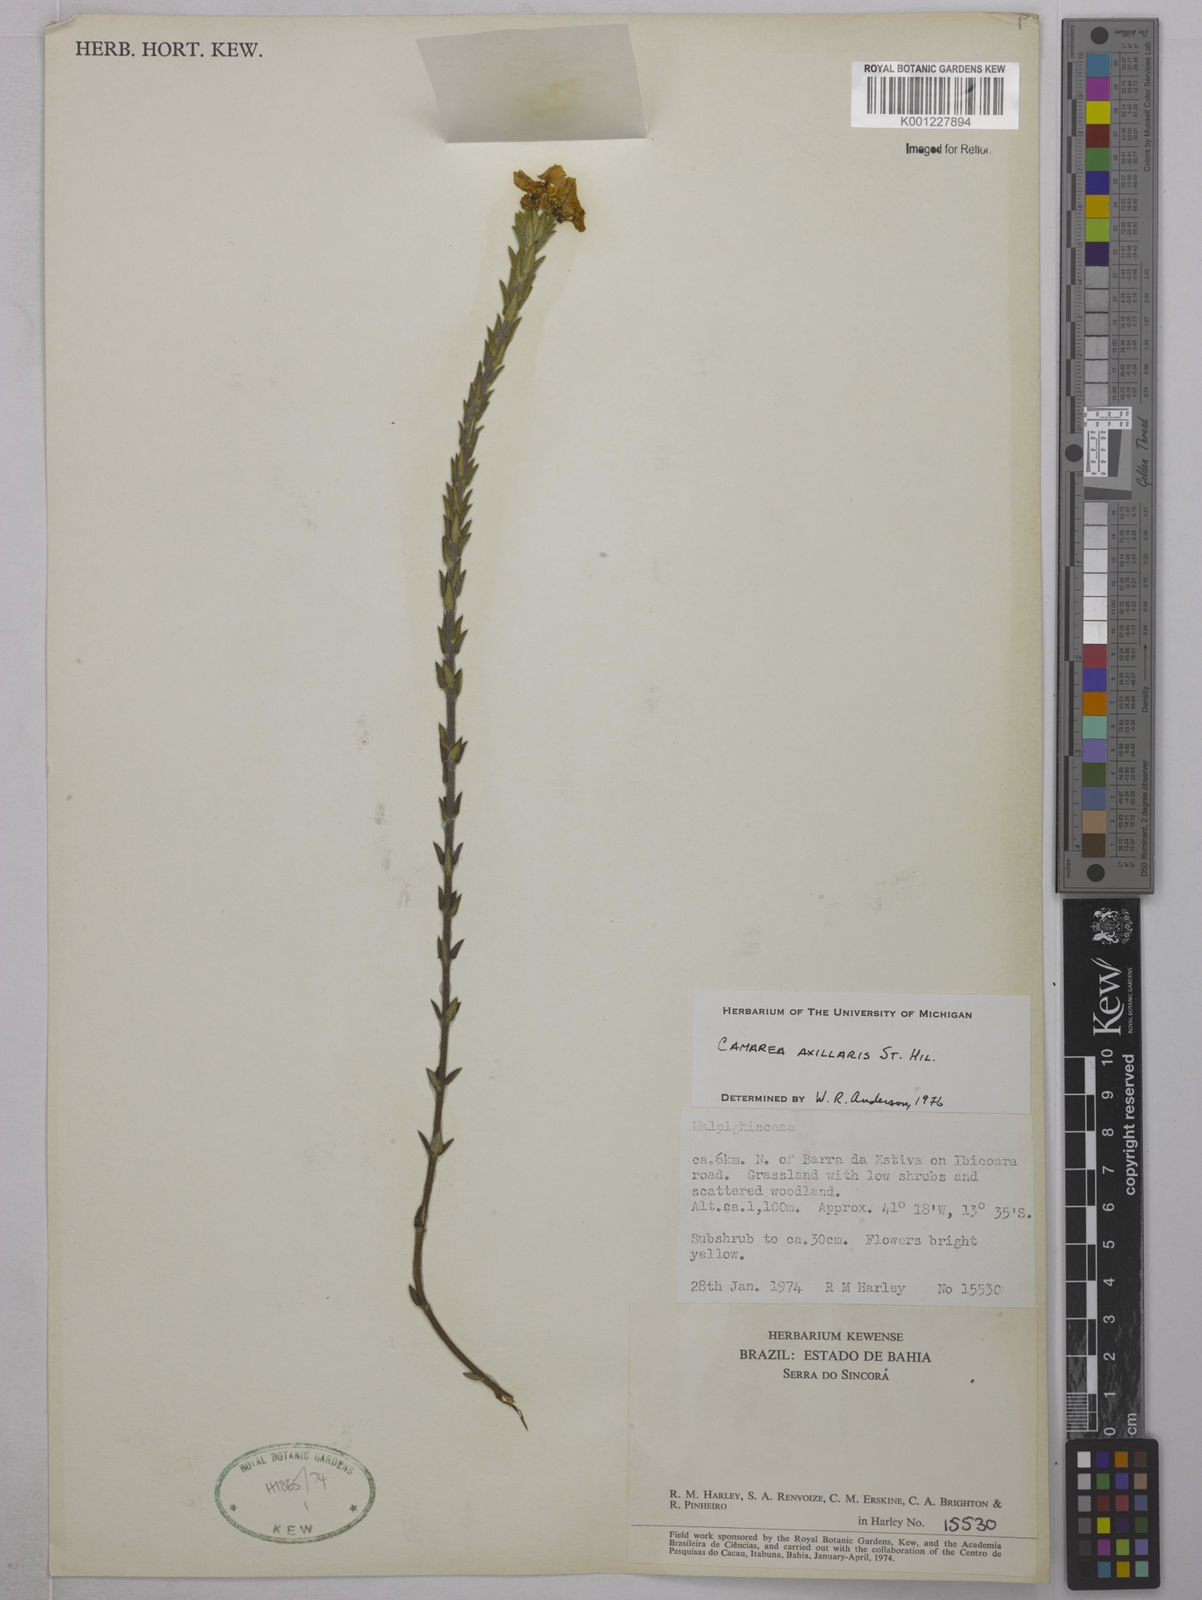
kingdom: Plantae
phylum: Tracheophyta
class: Magnoliopsida
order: Malpighiales
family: Malpighiaceae
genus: Camarea
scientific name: Camarea axillaris
